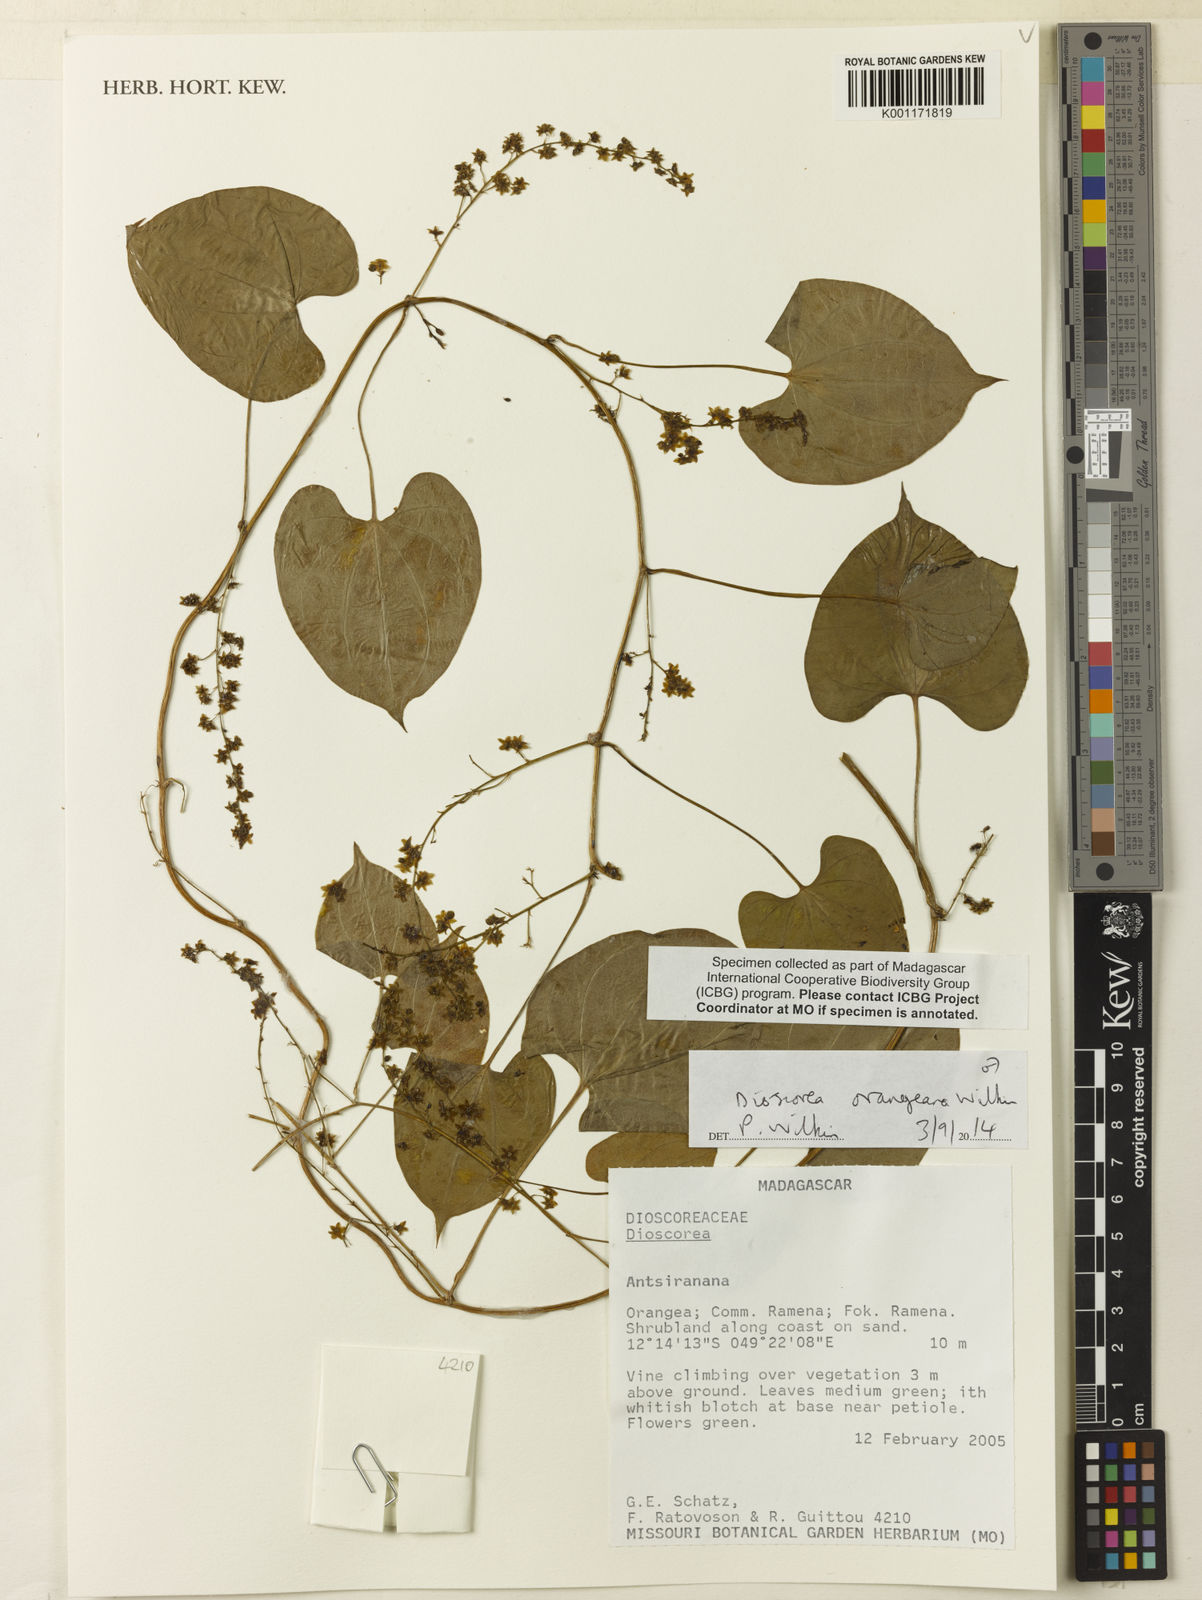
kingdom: Plantae
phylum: Tracheophyta
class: Liliopsida
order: Dioscoreales
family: Dioscoreaceae
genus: Dioscorea
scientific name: Dioscorea orangeana
